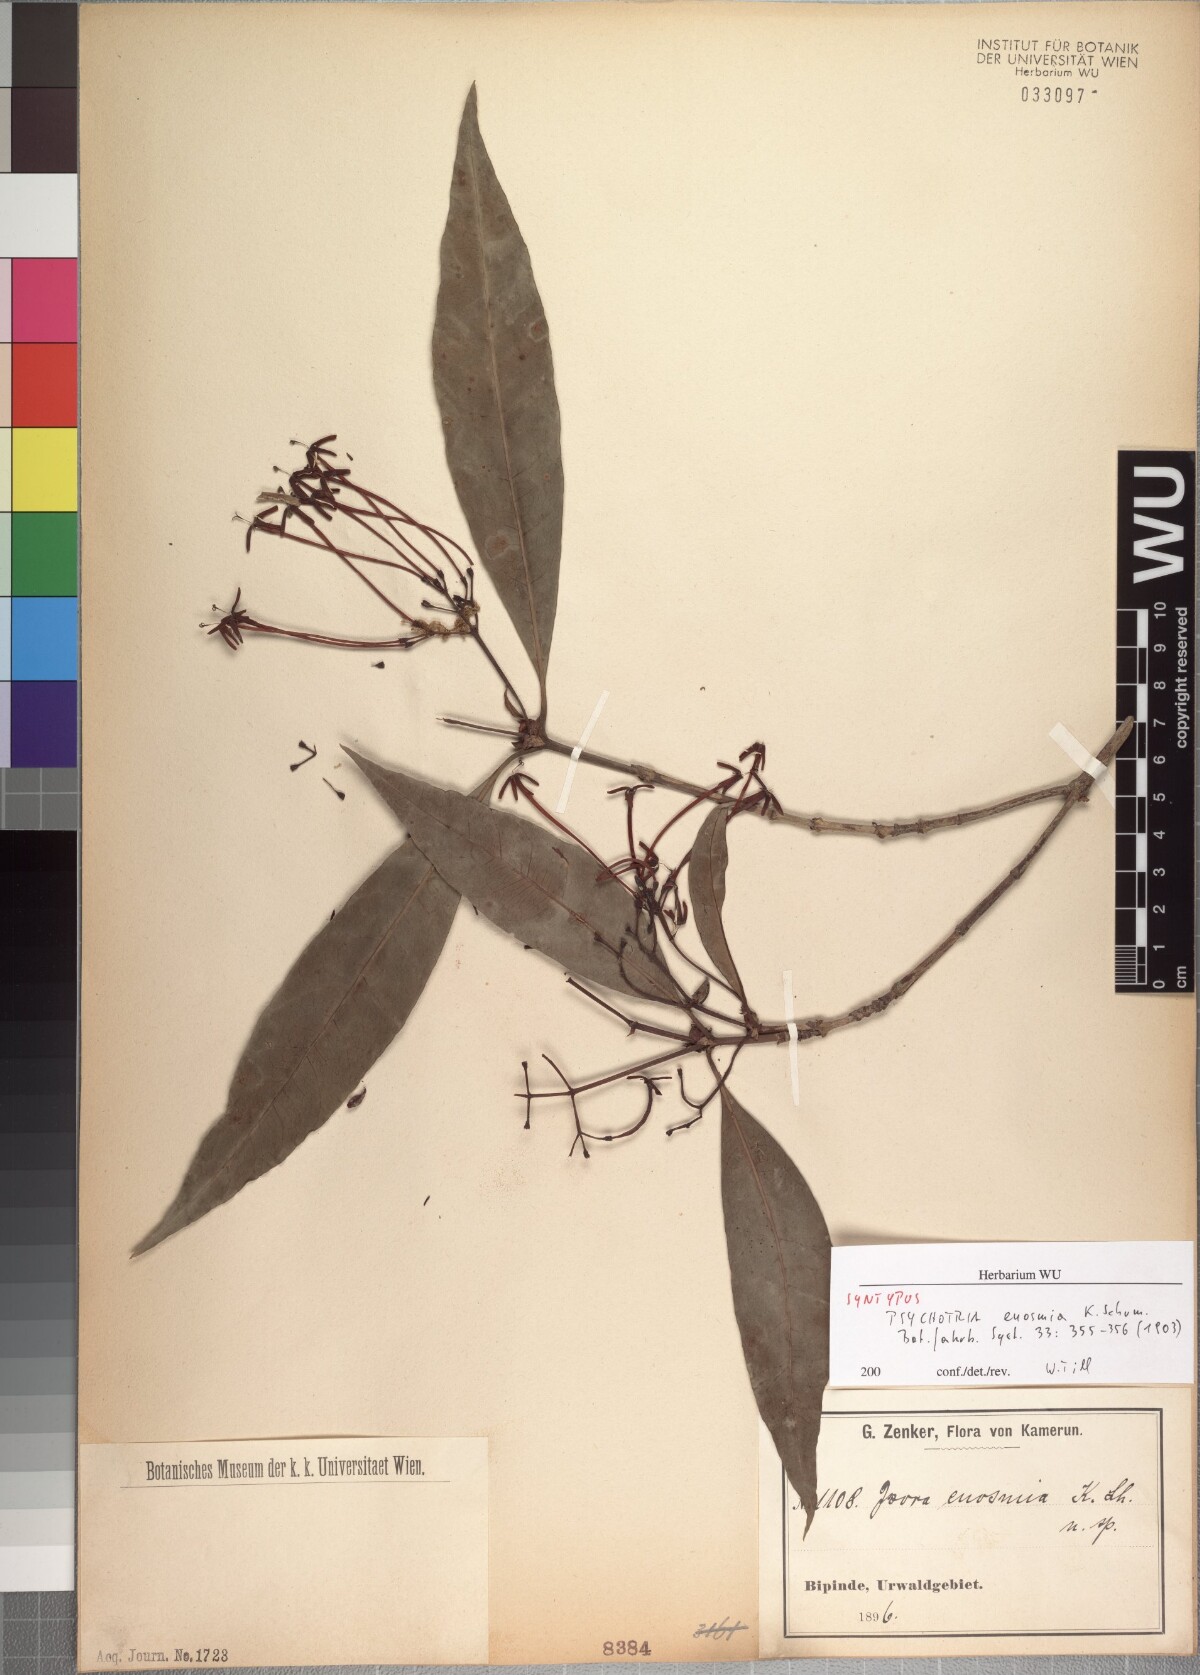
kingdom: Plantae
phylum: Tracheophyta
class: Magnoliopsida
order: Gentianales
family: Rubiaceae
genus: Ixora
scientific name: Ixora euosmia
